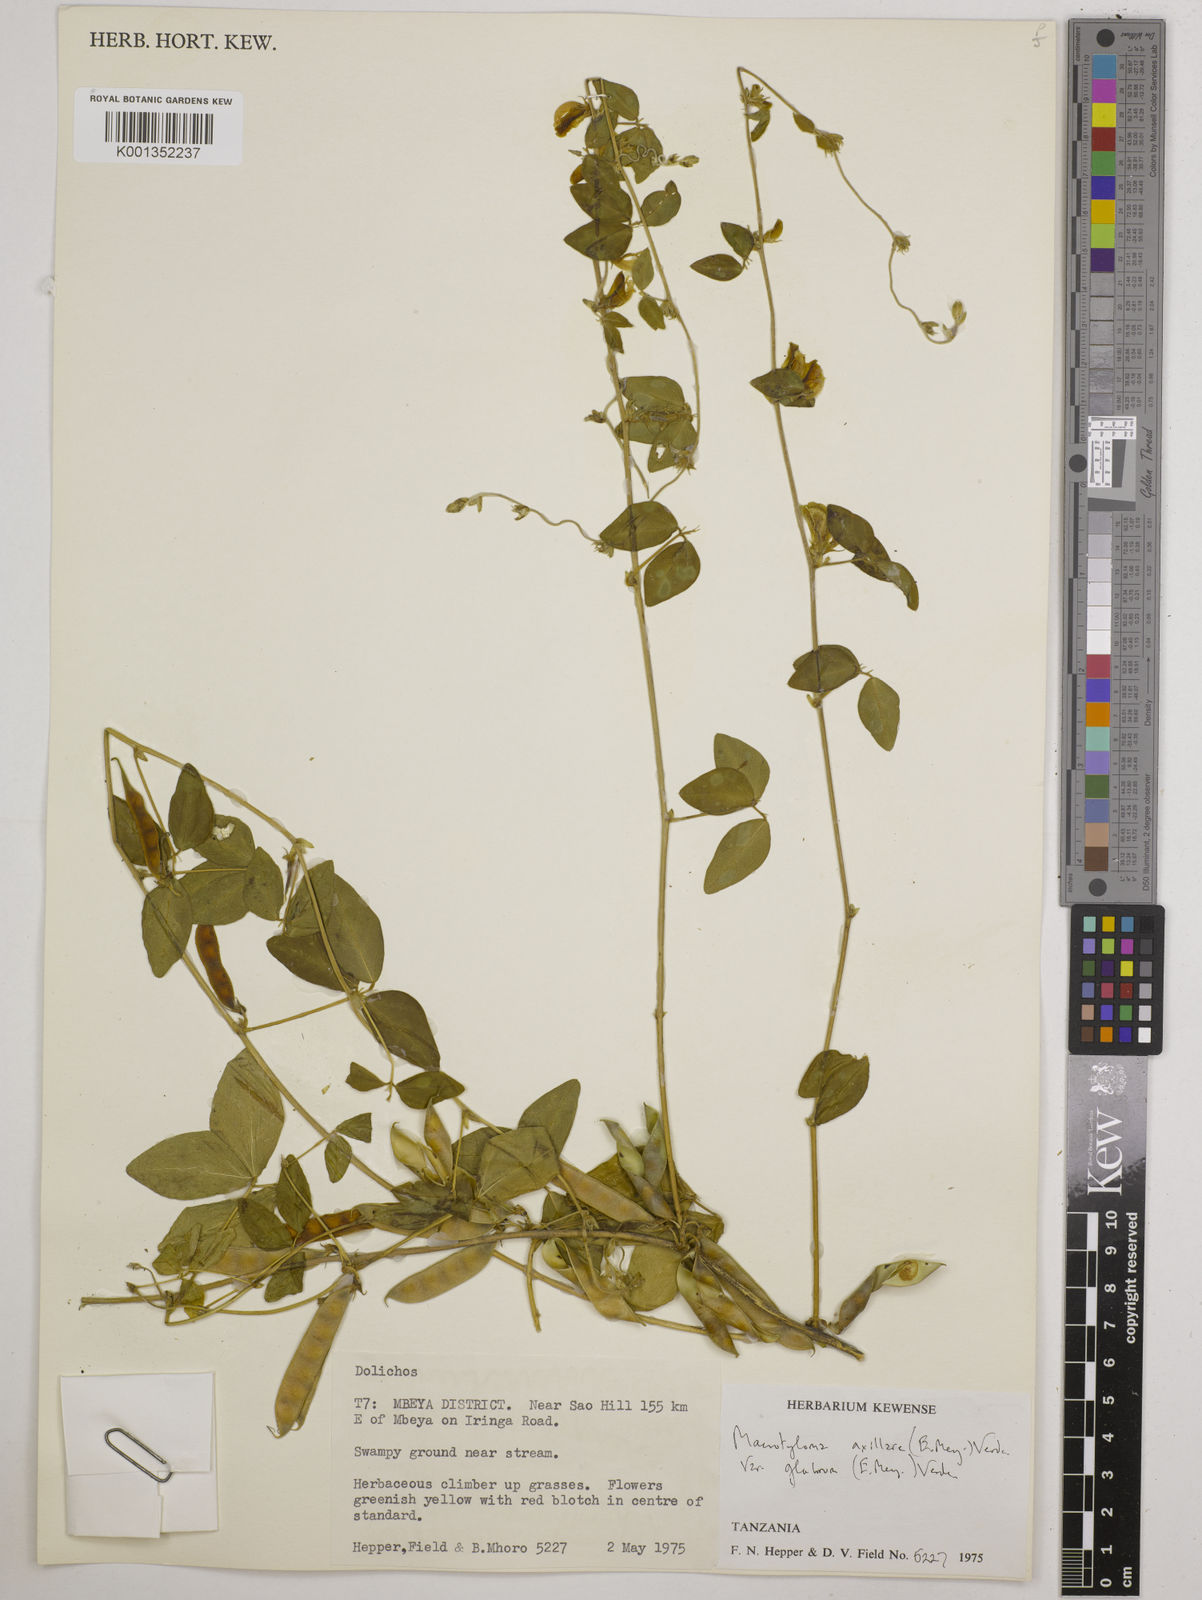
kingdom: Plantae
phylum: Tracheophyta
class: Magnoliopsida
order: Fabales
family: Fabaceae
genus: Macrotyloma
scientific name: Macrotyloma
